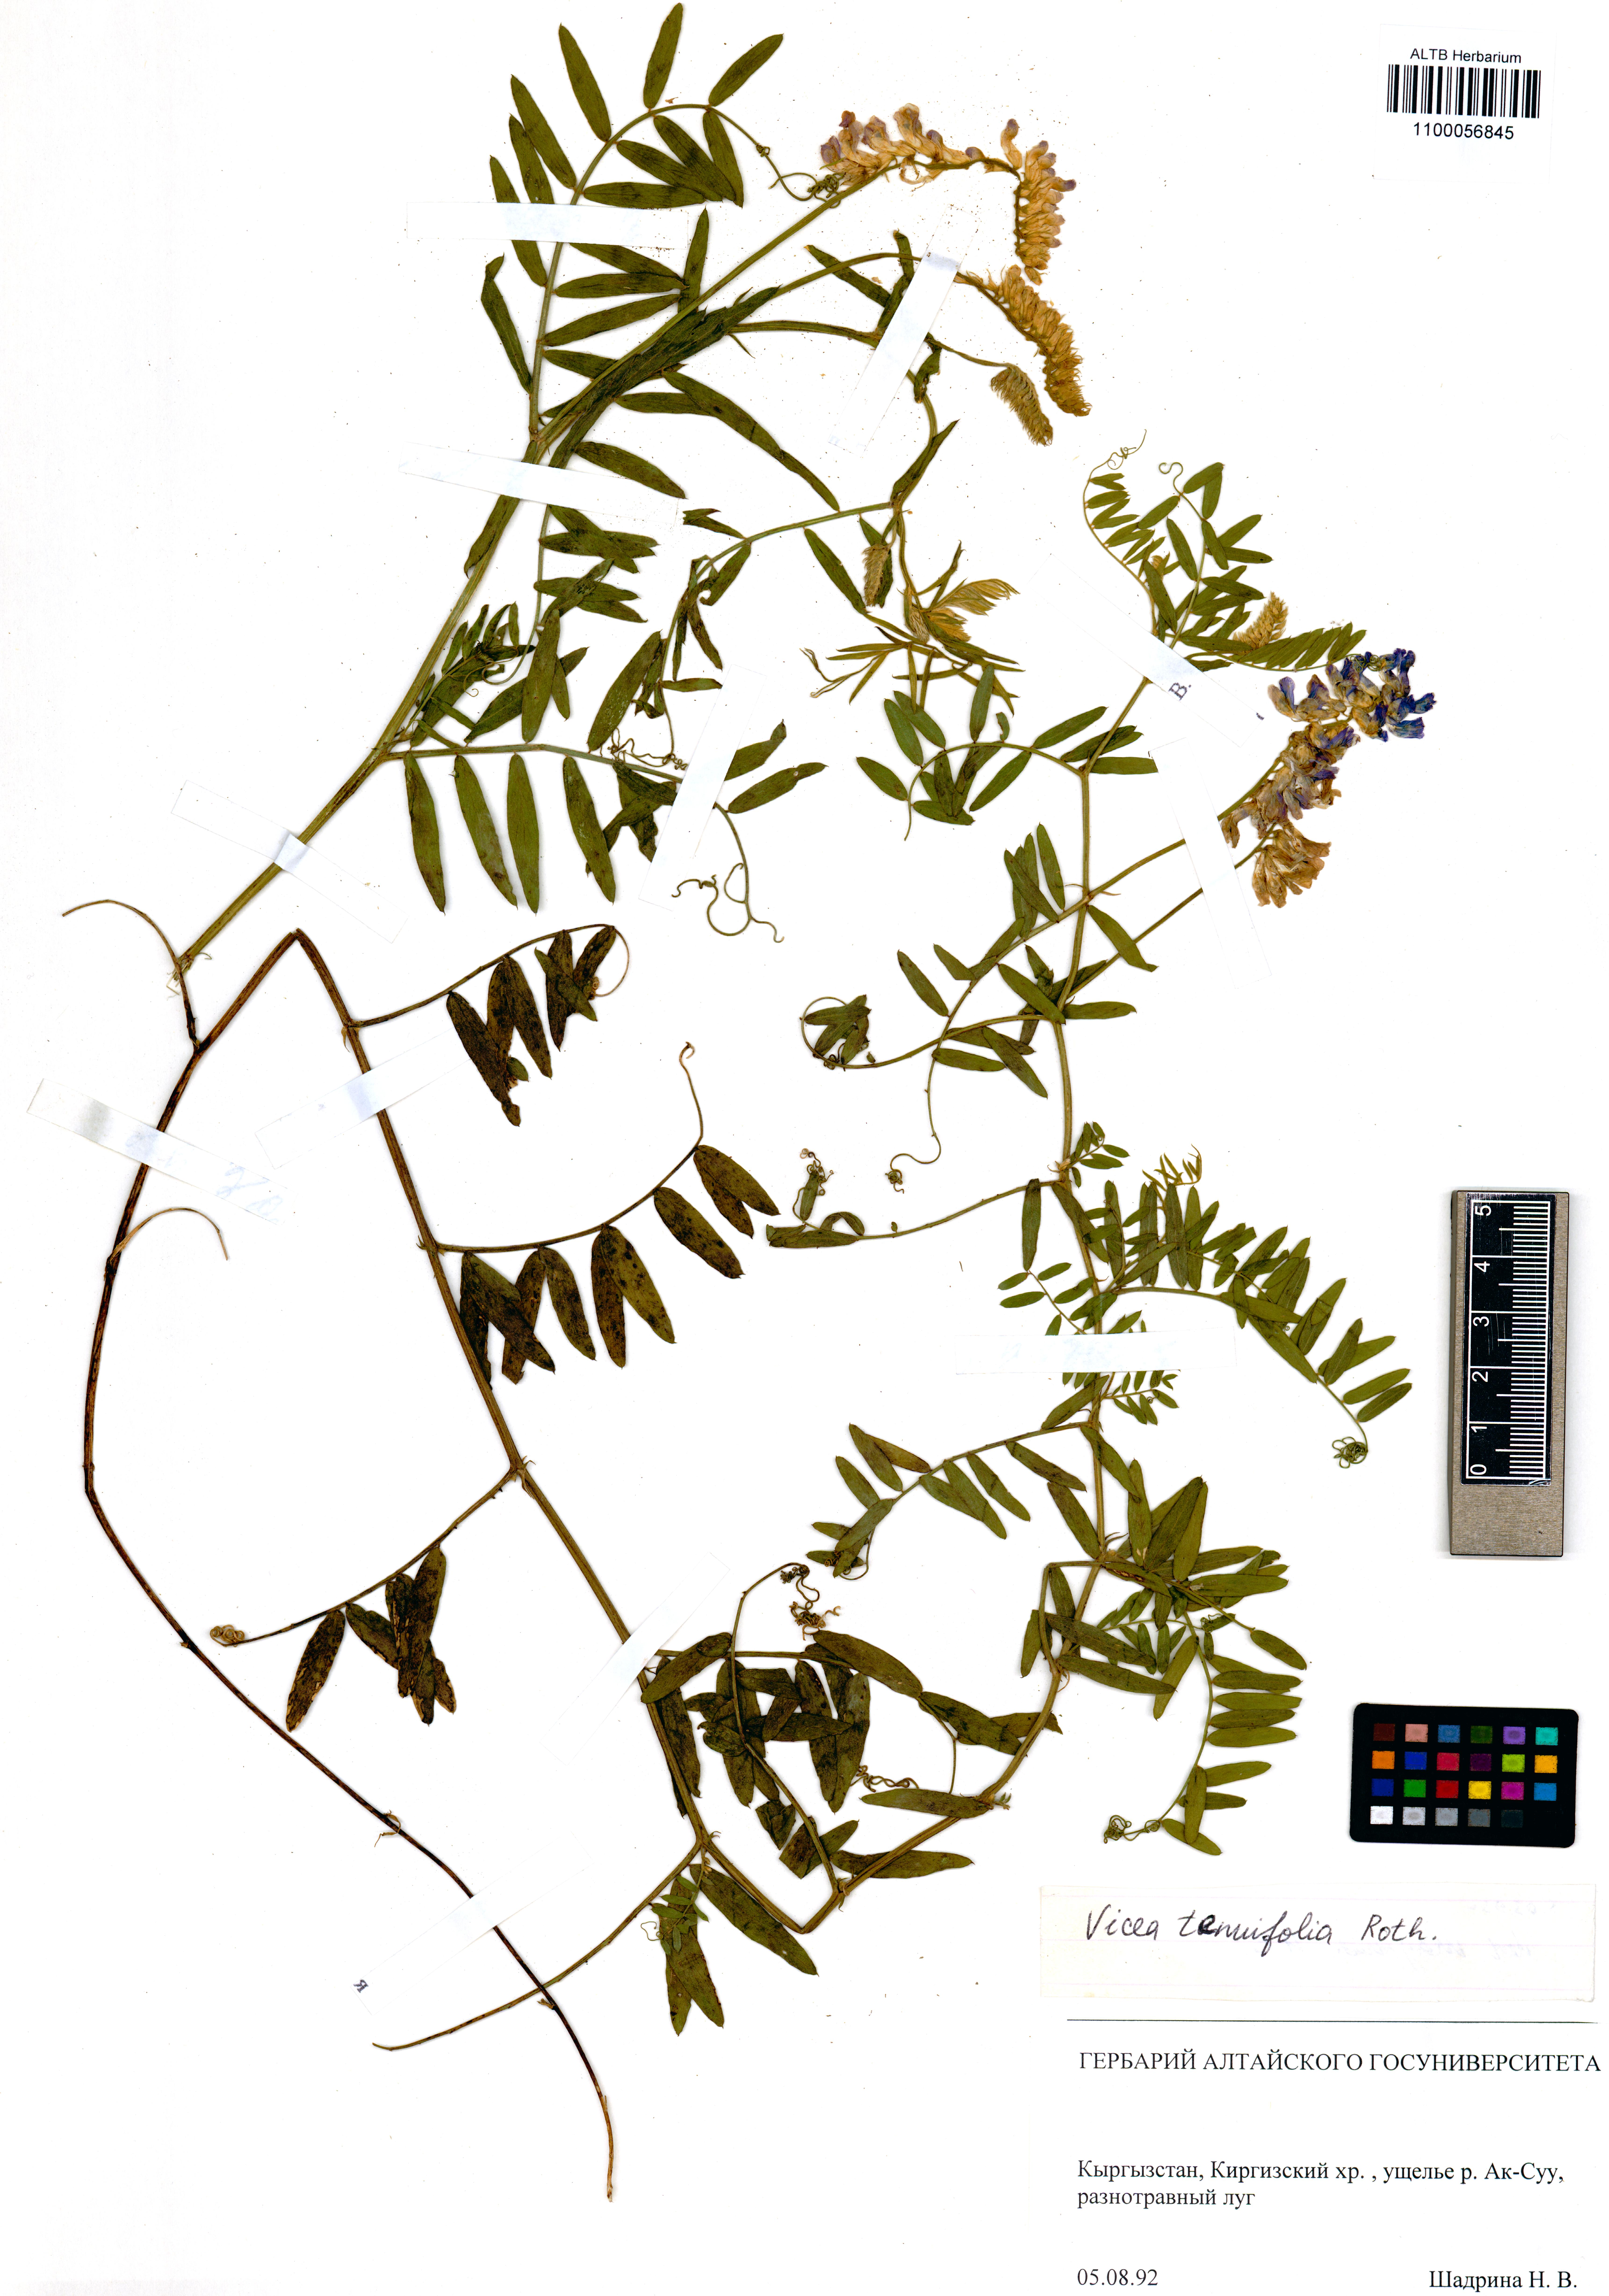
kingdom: Plantae
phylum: Tracheophyta
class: Magnoliopsida
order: Fabales
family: Fabaceae
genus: Vicia
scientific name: Vicia tenuifolia
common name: Fine-leaved vetch
